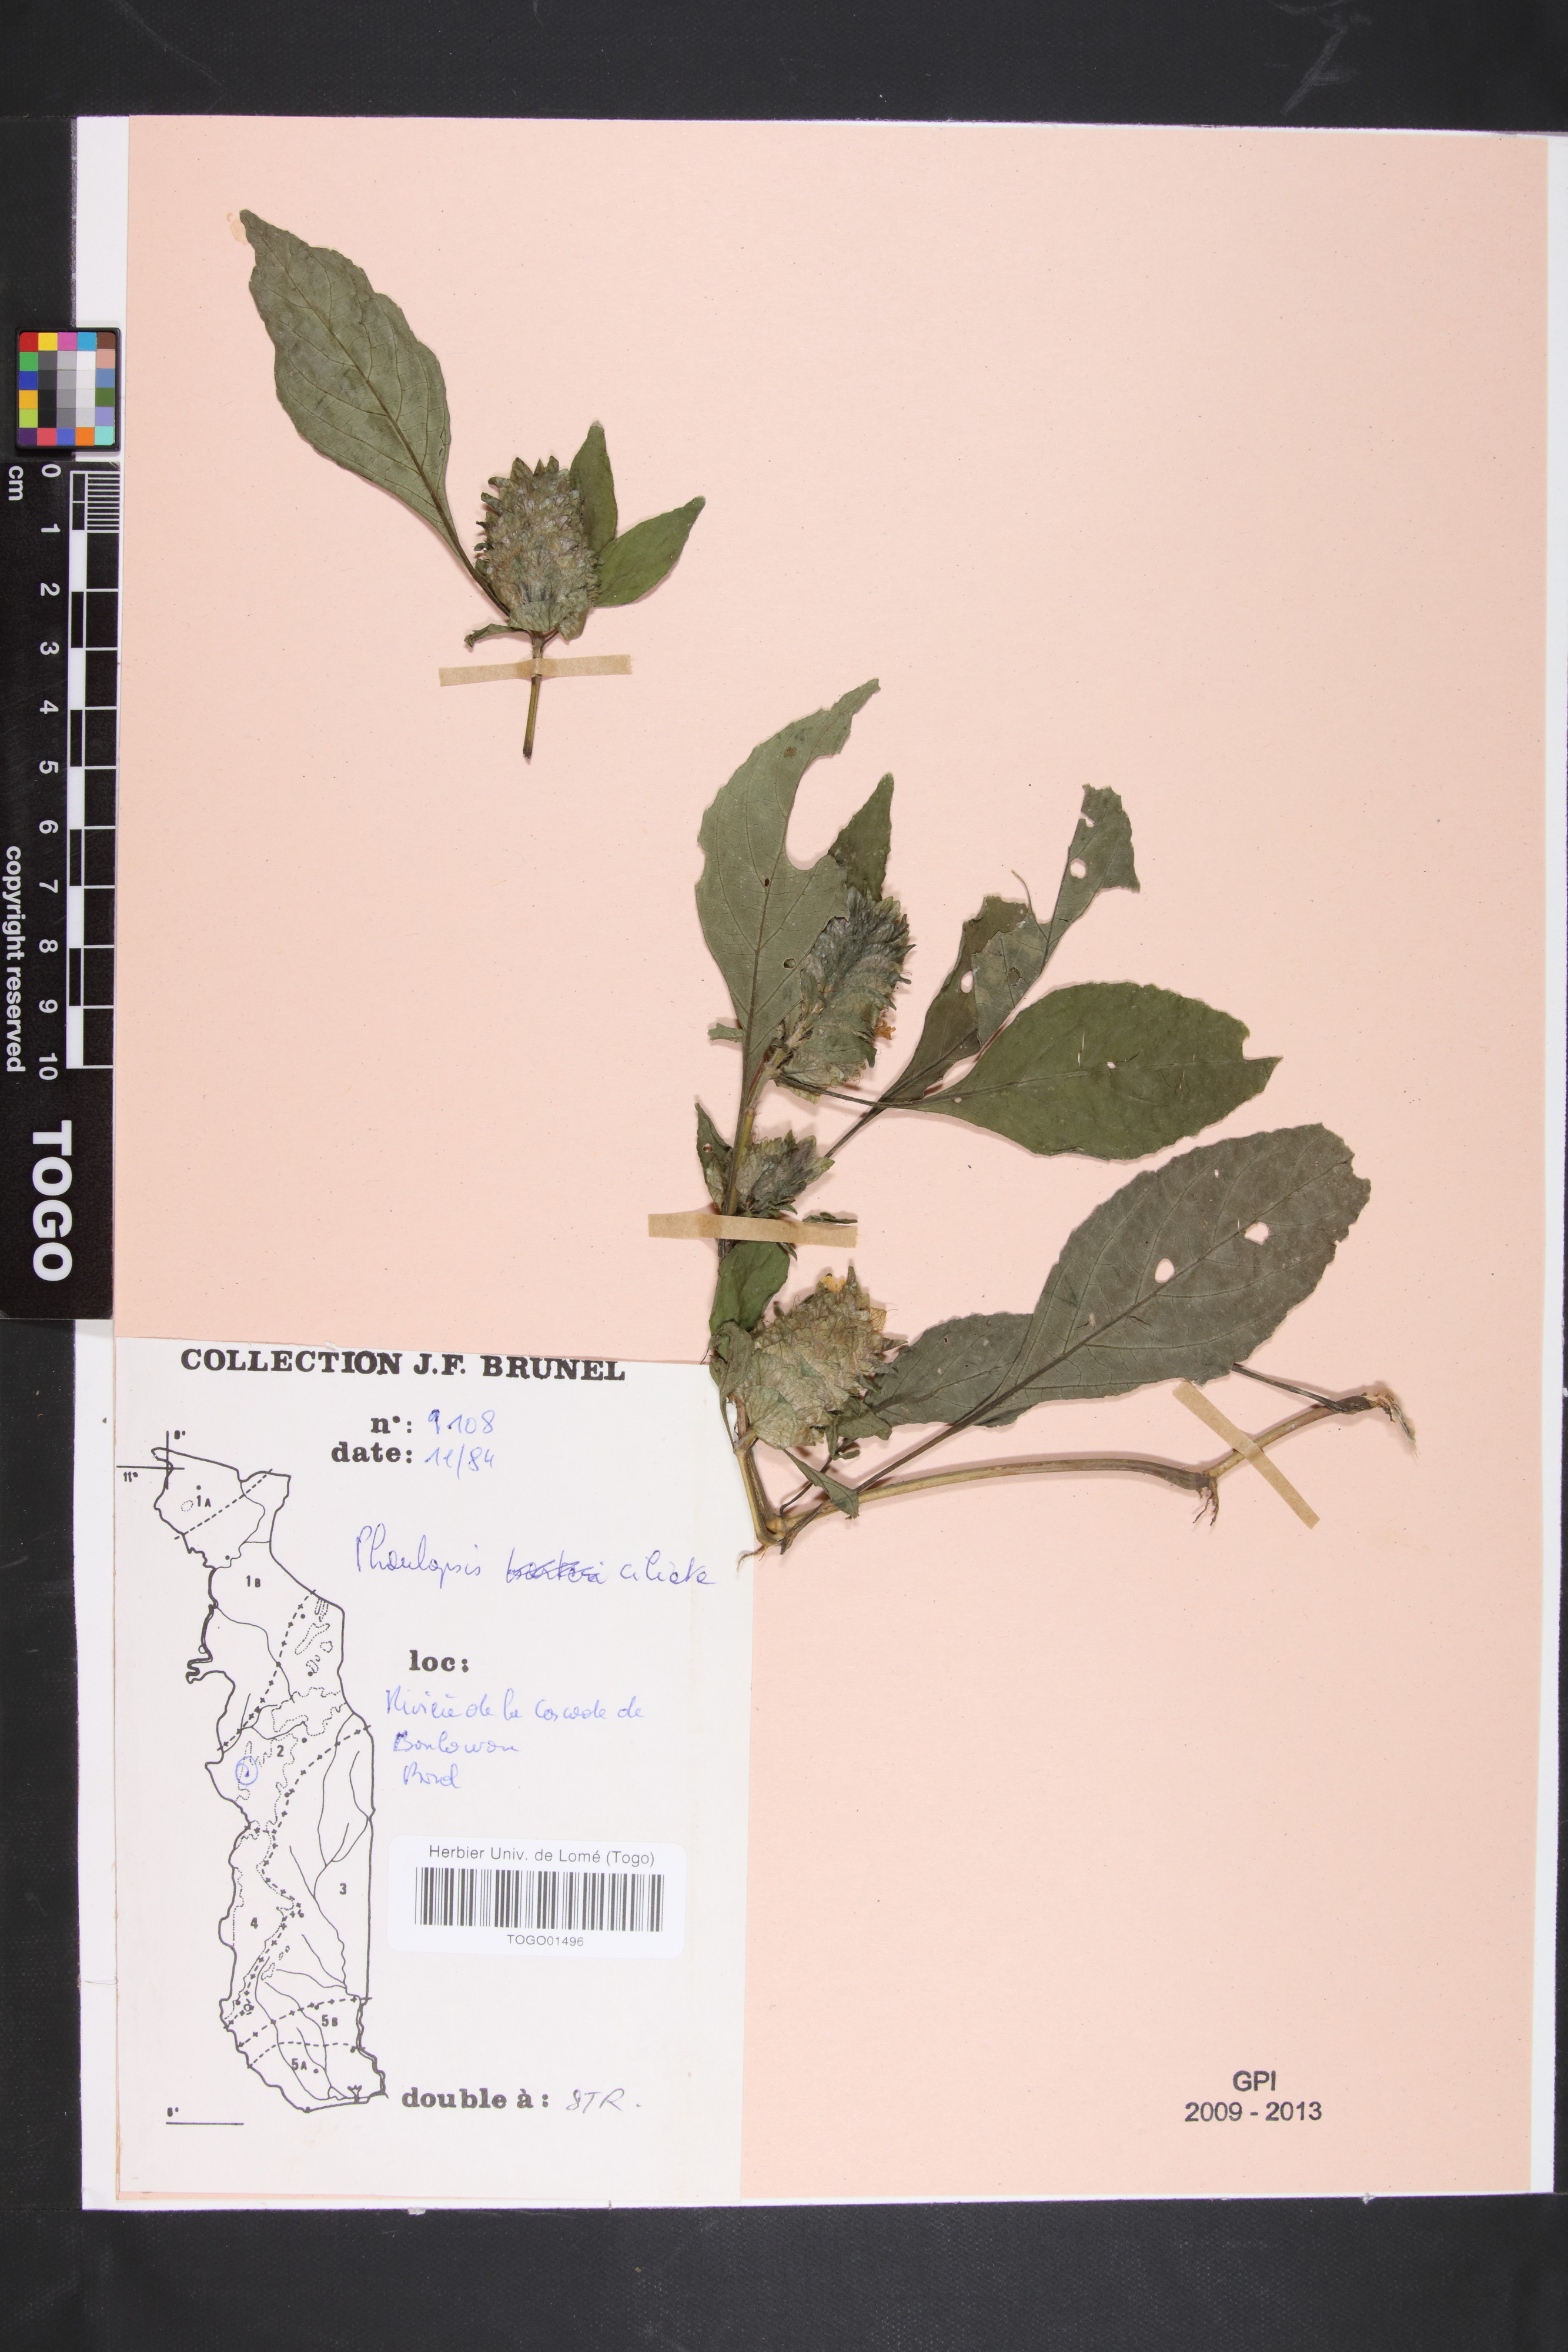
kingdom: Plantae
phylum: Tracheophyta
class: Magnoliopsida
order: Lamiales
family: Acanthaceae
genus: Phaulopsis
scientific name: Phaulopsis ciliata
